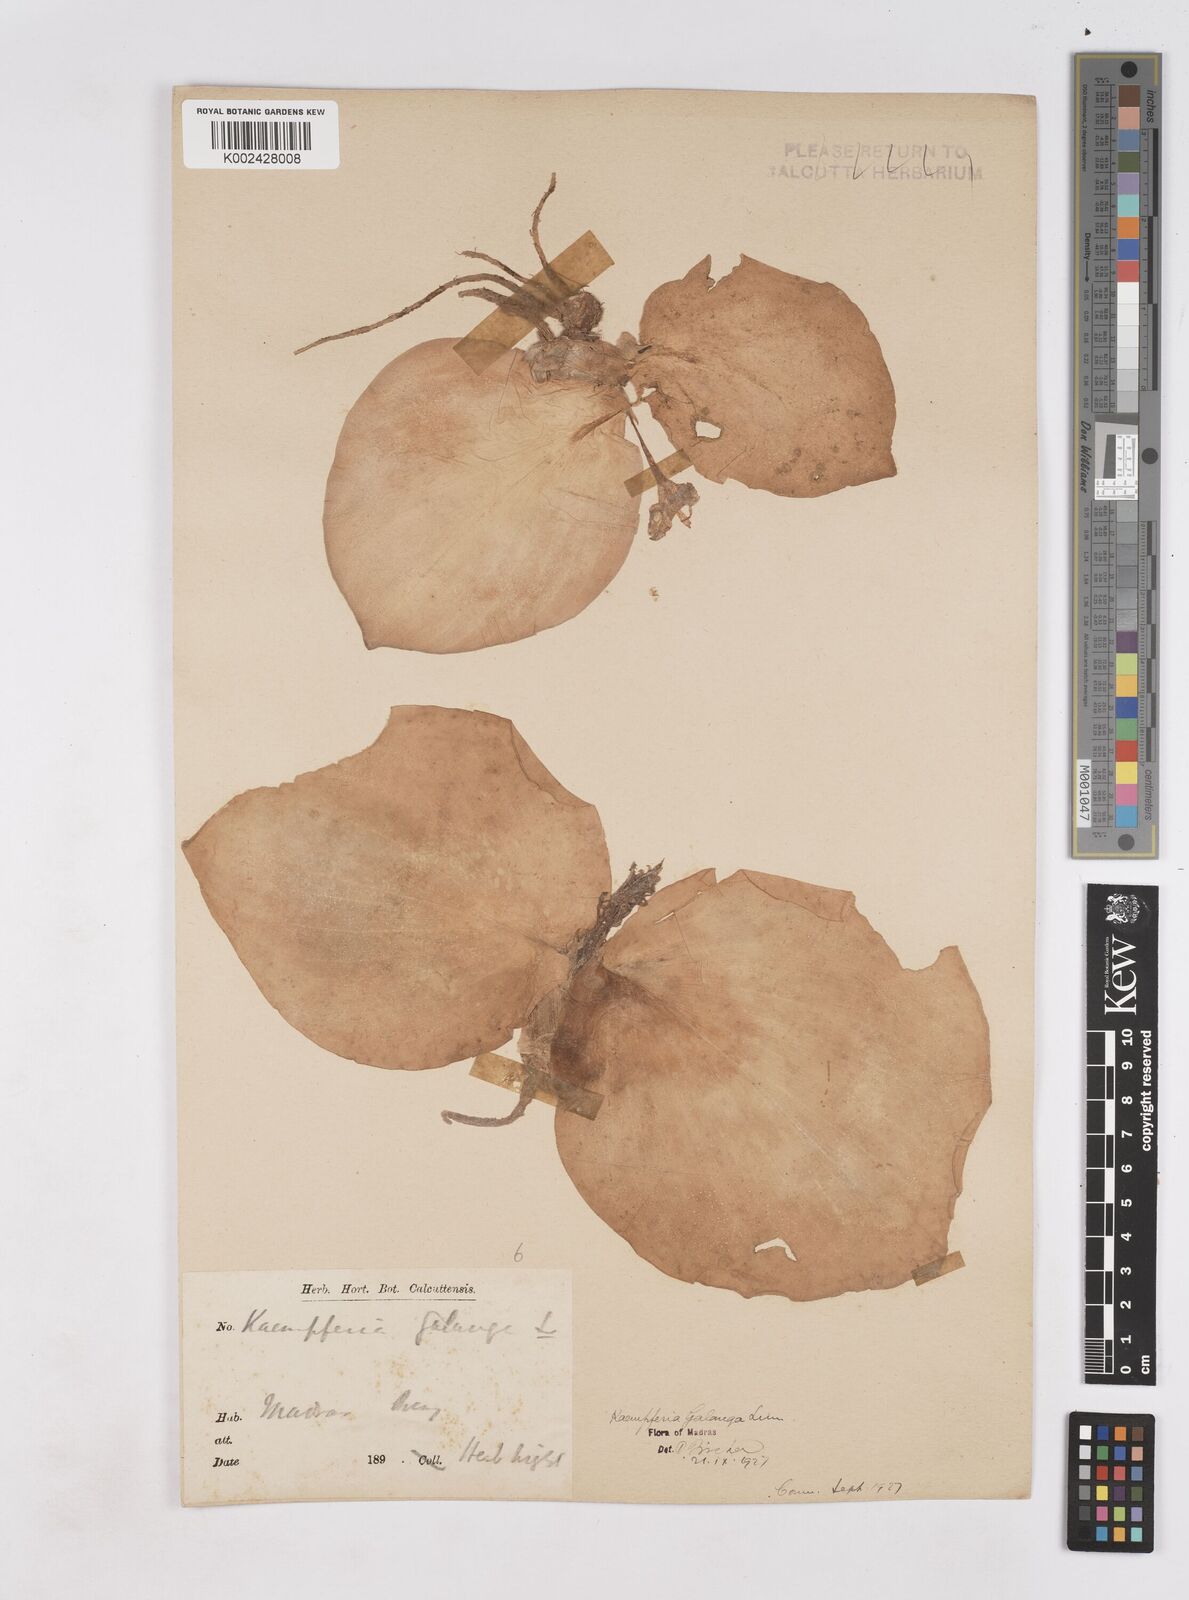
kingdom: Plantae
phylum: Tracheophyta
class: Liliopsida
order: Zingiberales
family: Zingiberaceae
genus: Kaempferia
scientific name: Kaempferia galanga
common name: Aromatic ginger
